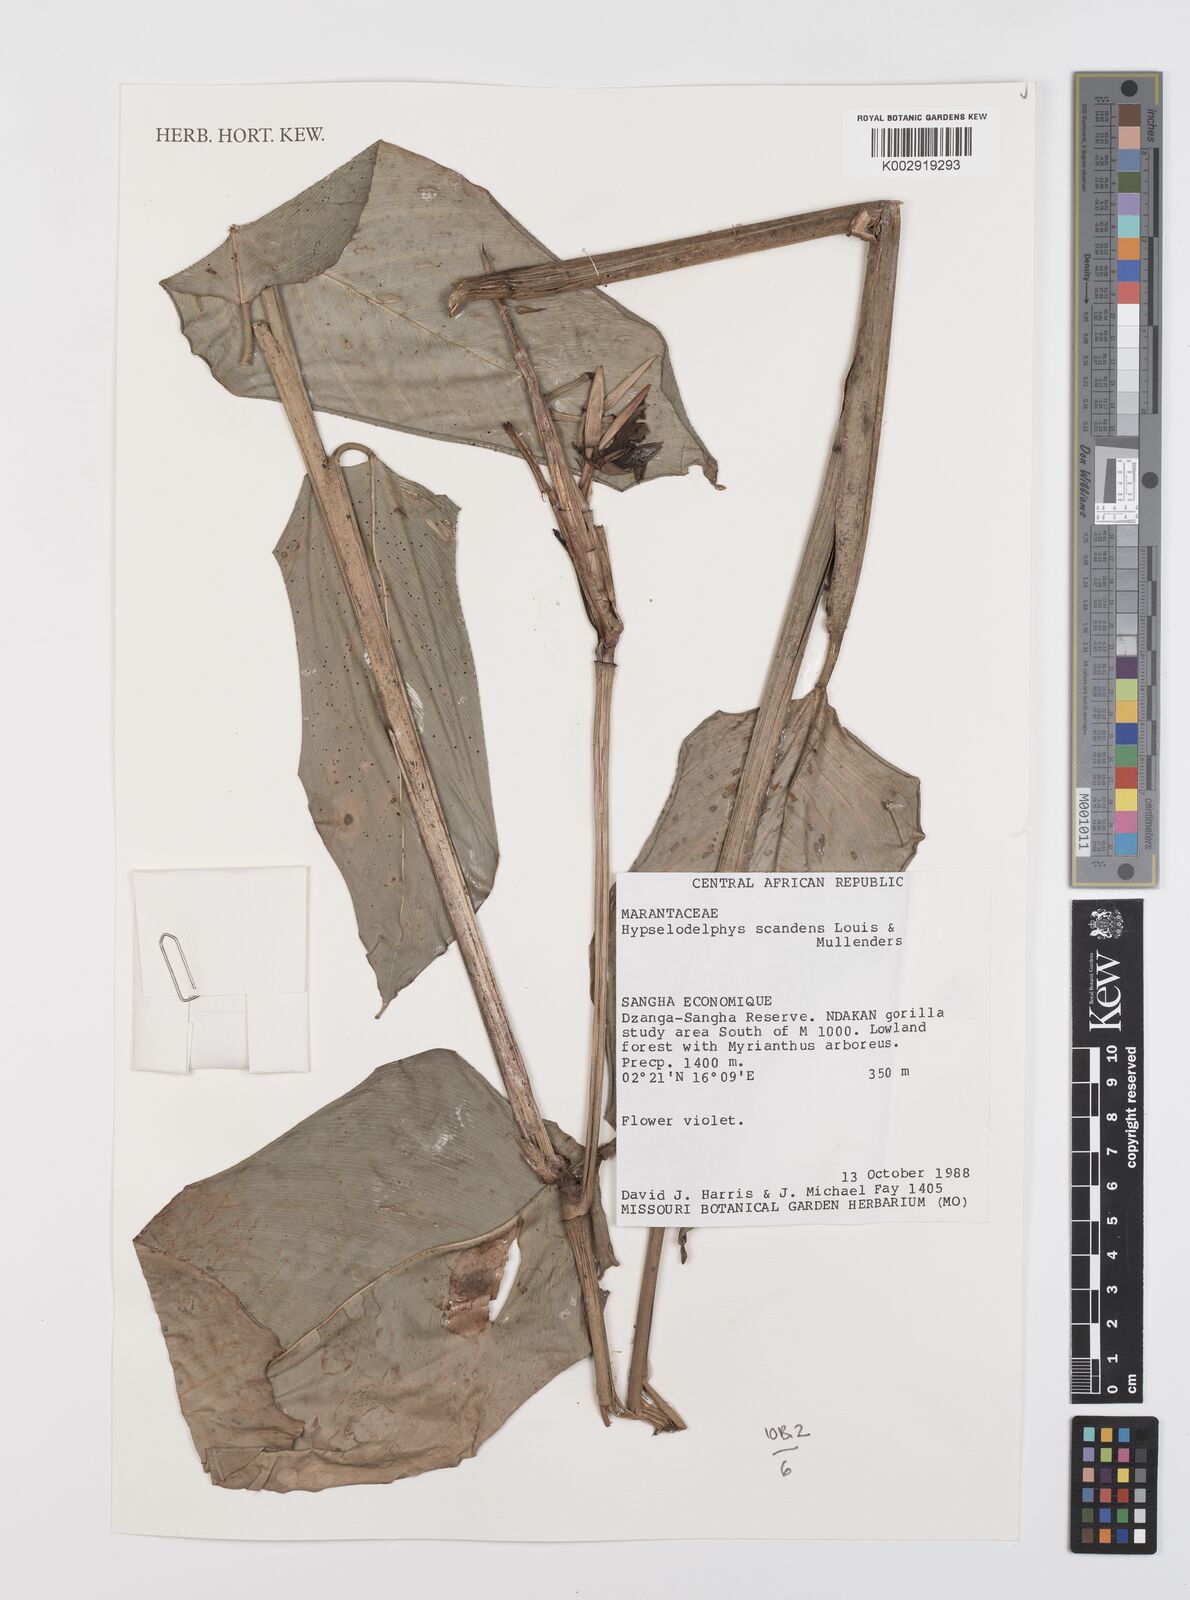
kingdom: Plantae
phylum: Tracheophyta
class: Liliopsida
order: Zingiberales
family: Marantaceae
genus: Hypselodelphys
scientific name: Hypselodelphys scandens
